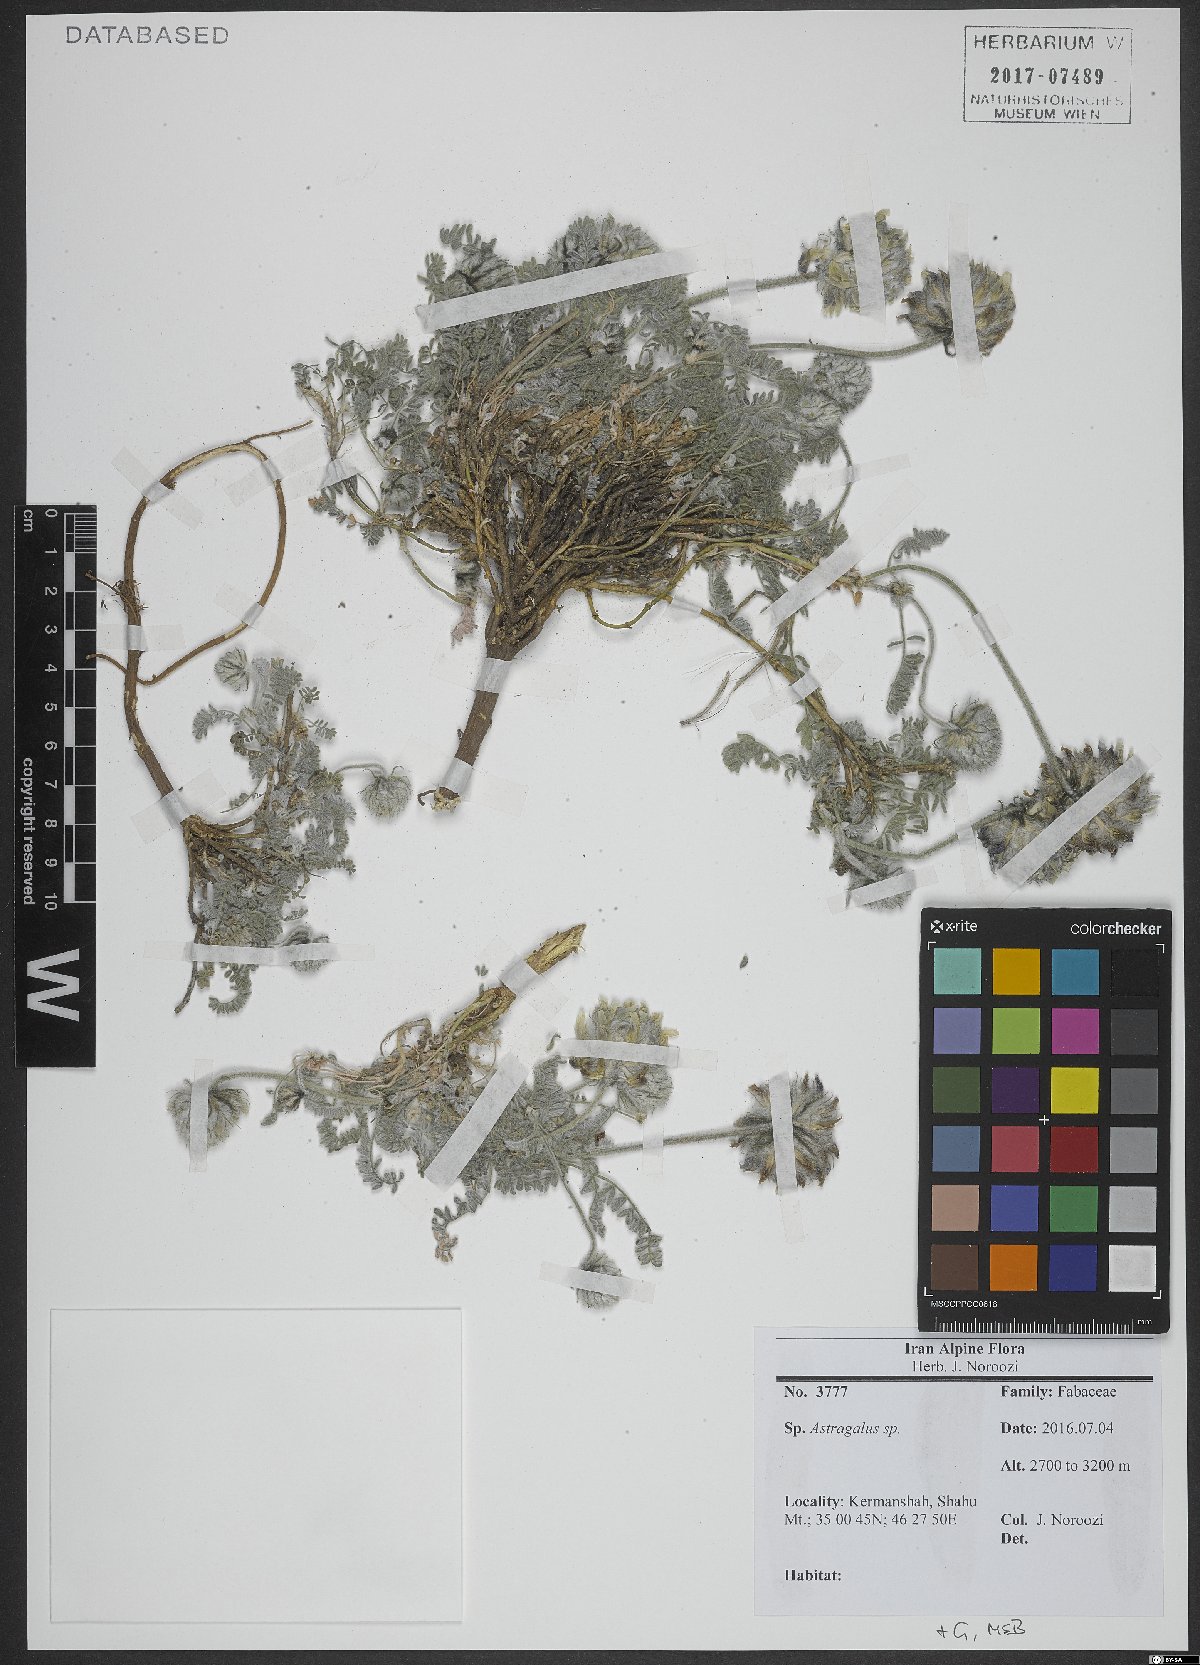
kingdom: Plantae
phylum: Tracheophyta
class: Magnoliopsida
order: Fabales
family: Fabaceae
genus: Astragalus
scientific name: Astragalus
